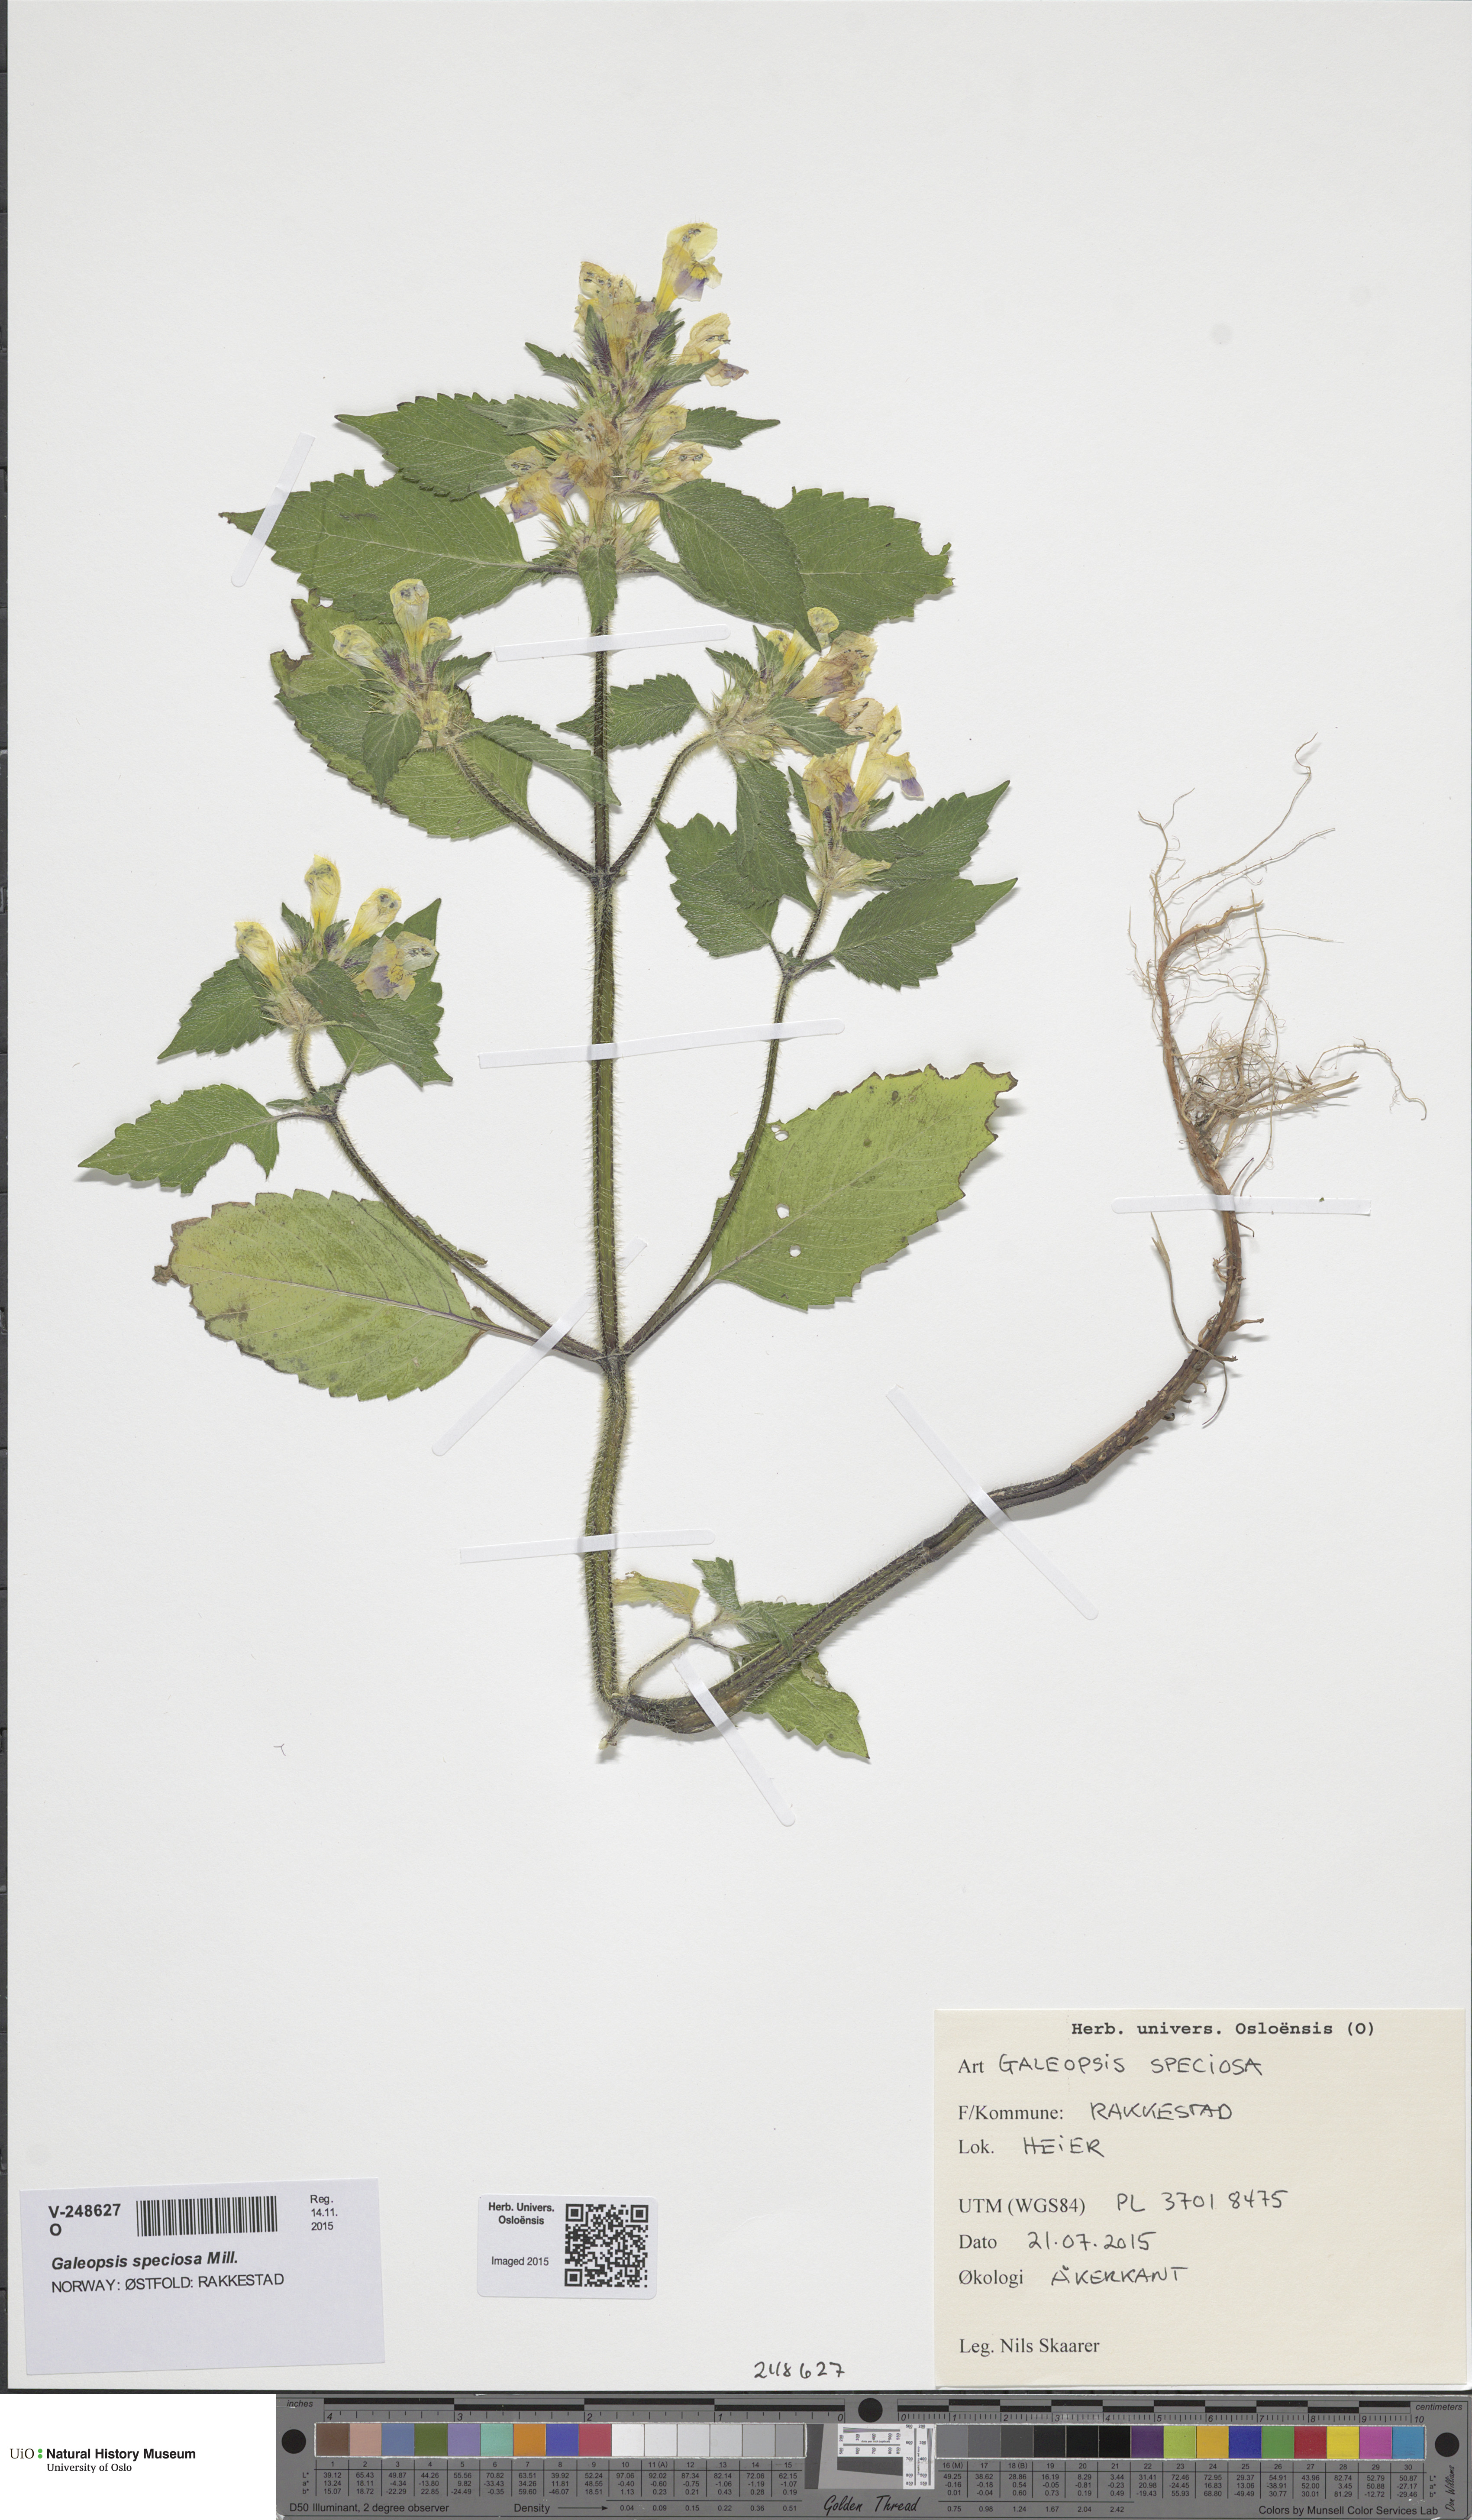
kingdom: Plantae
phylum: Tracheophyta
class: Magnoliopsida
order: Lamiales
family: Lamiaceae
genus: Galeopsis
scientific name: Galeopsis speciosa
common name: Large-flowered hemp-nettle
